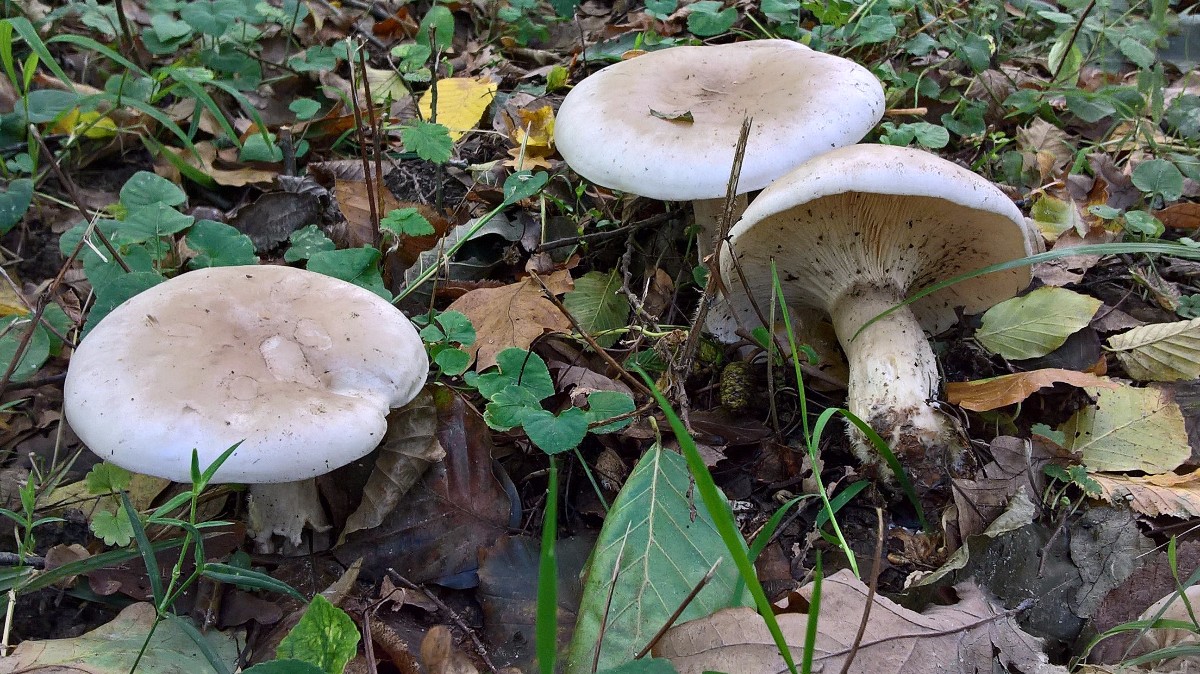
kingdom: Fungi
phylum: Basidiomycota
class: Agaricomycetes
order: Agaricales
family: Tricholomataceae
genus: Clitocybe
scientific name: Clitocybe nebularis
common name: tåge-tragthat
